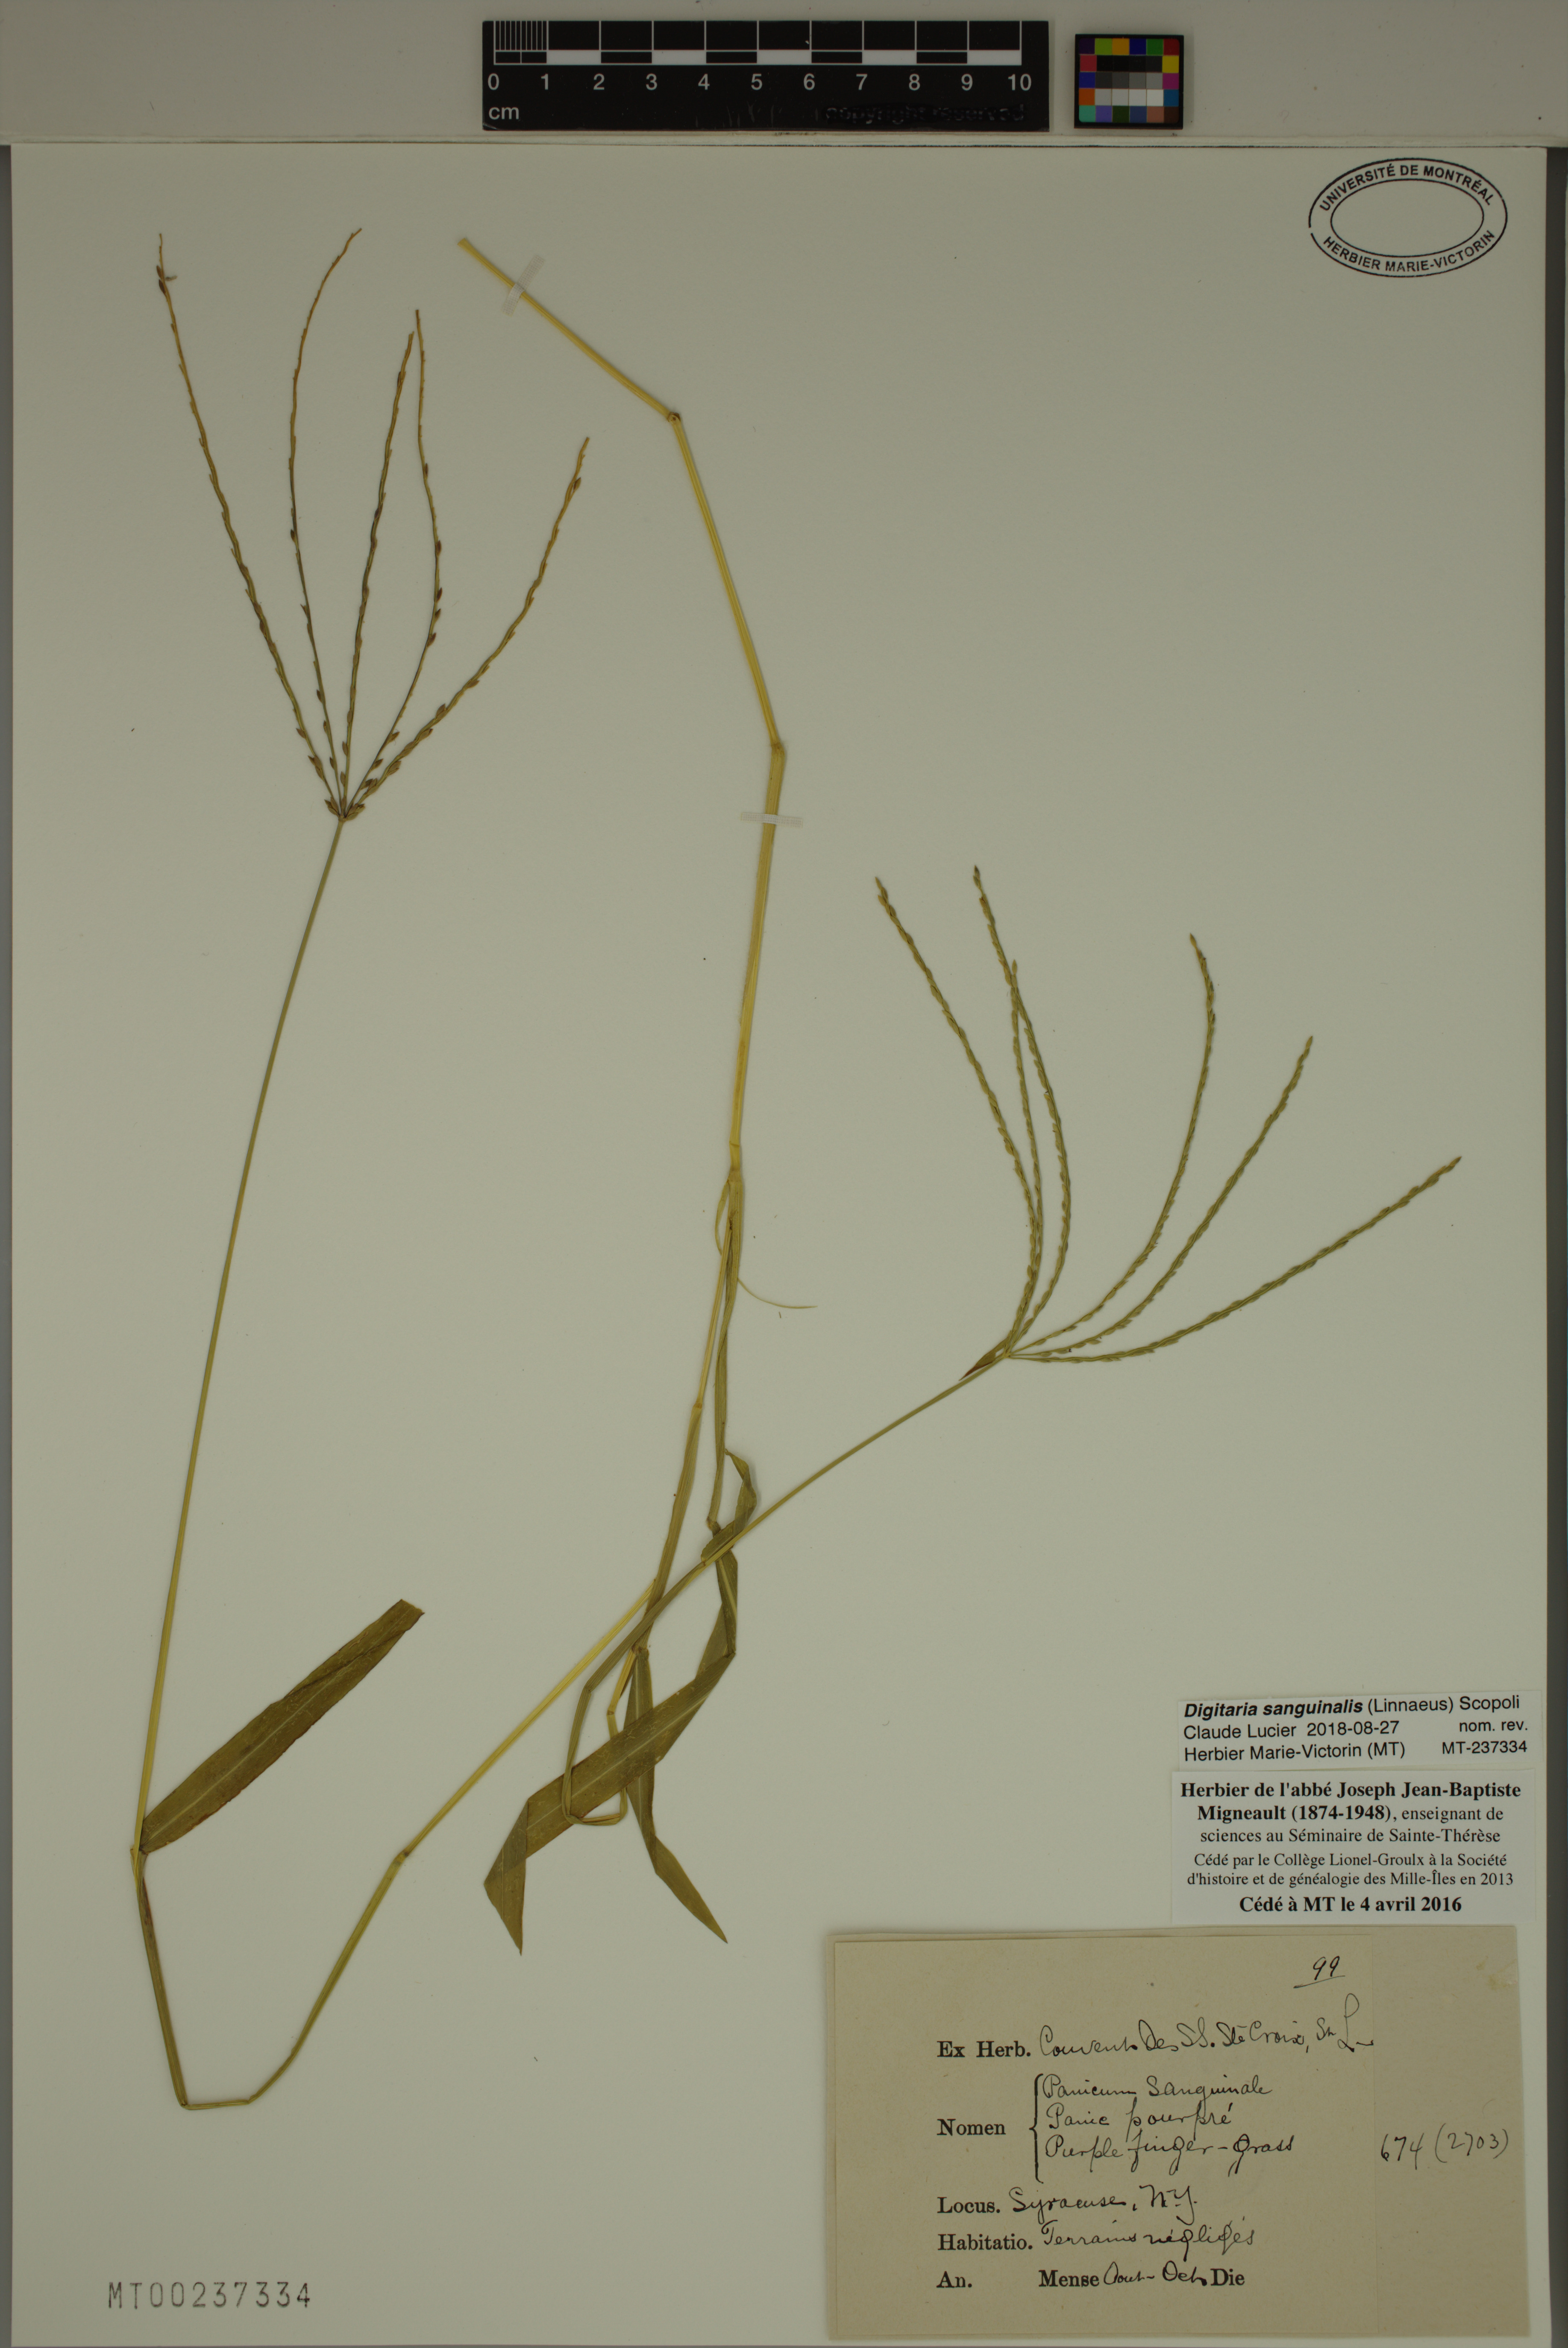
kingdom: Plantae
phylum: Tracheophyta
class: Liliopsida
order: Poales
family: Poaceae
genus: Digitaria
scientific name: Digitaria sanguinalis
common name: Hairy crabgrass
